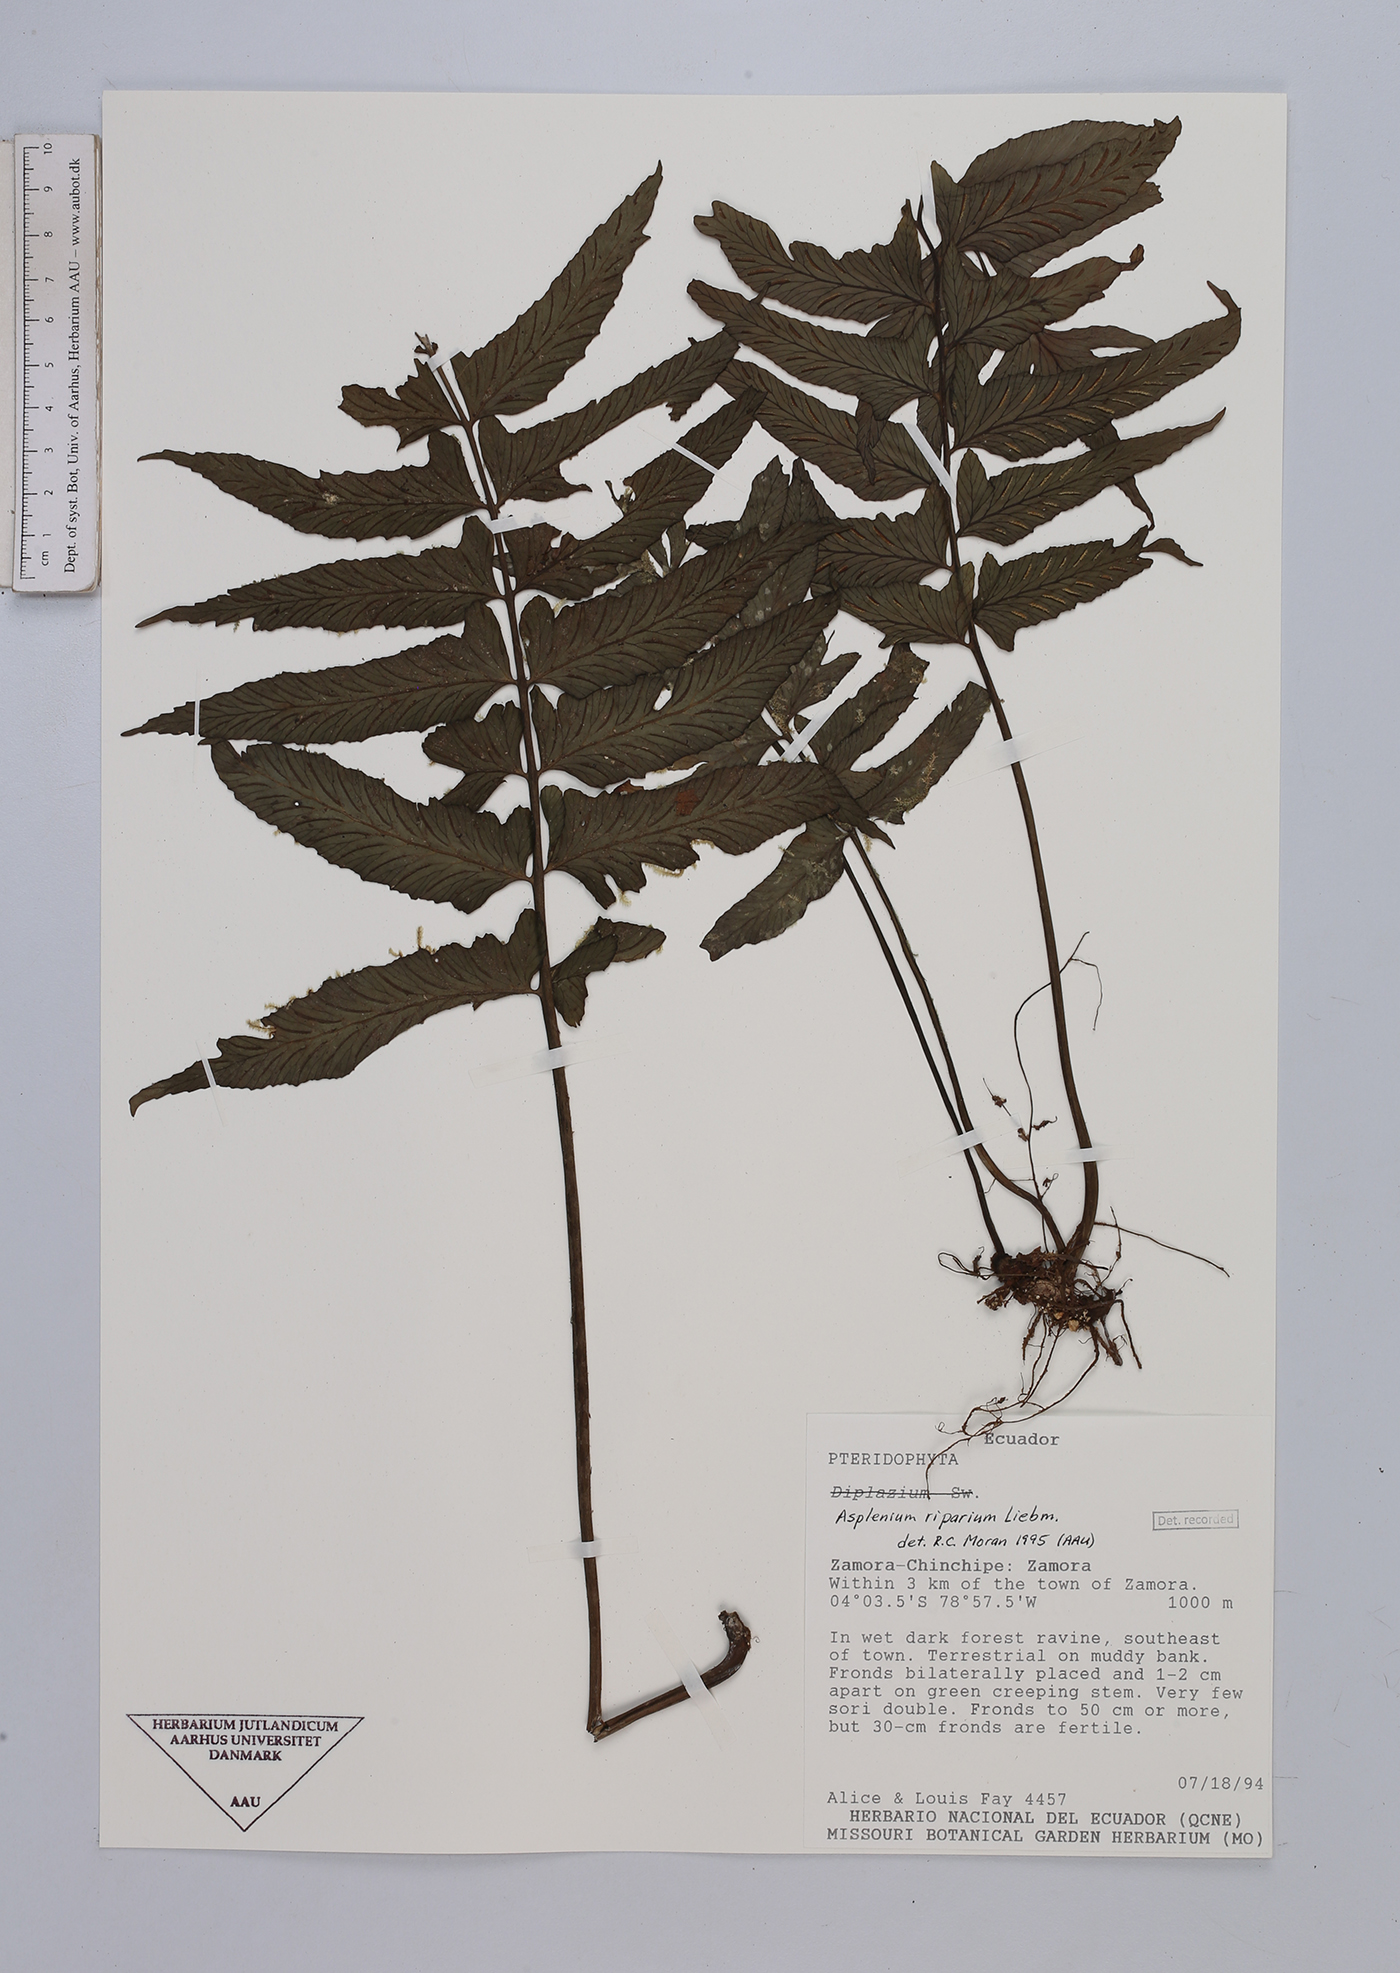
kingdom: Plantae
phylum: Tracheophyta
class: Polypodiopsida
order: Polypodiales
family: Aspleniaceae
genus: Hymenasplenium
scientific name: Hymenasplenium riparium
